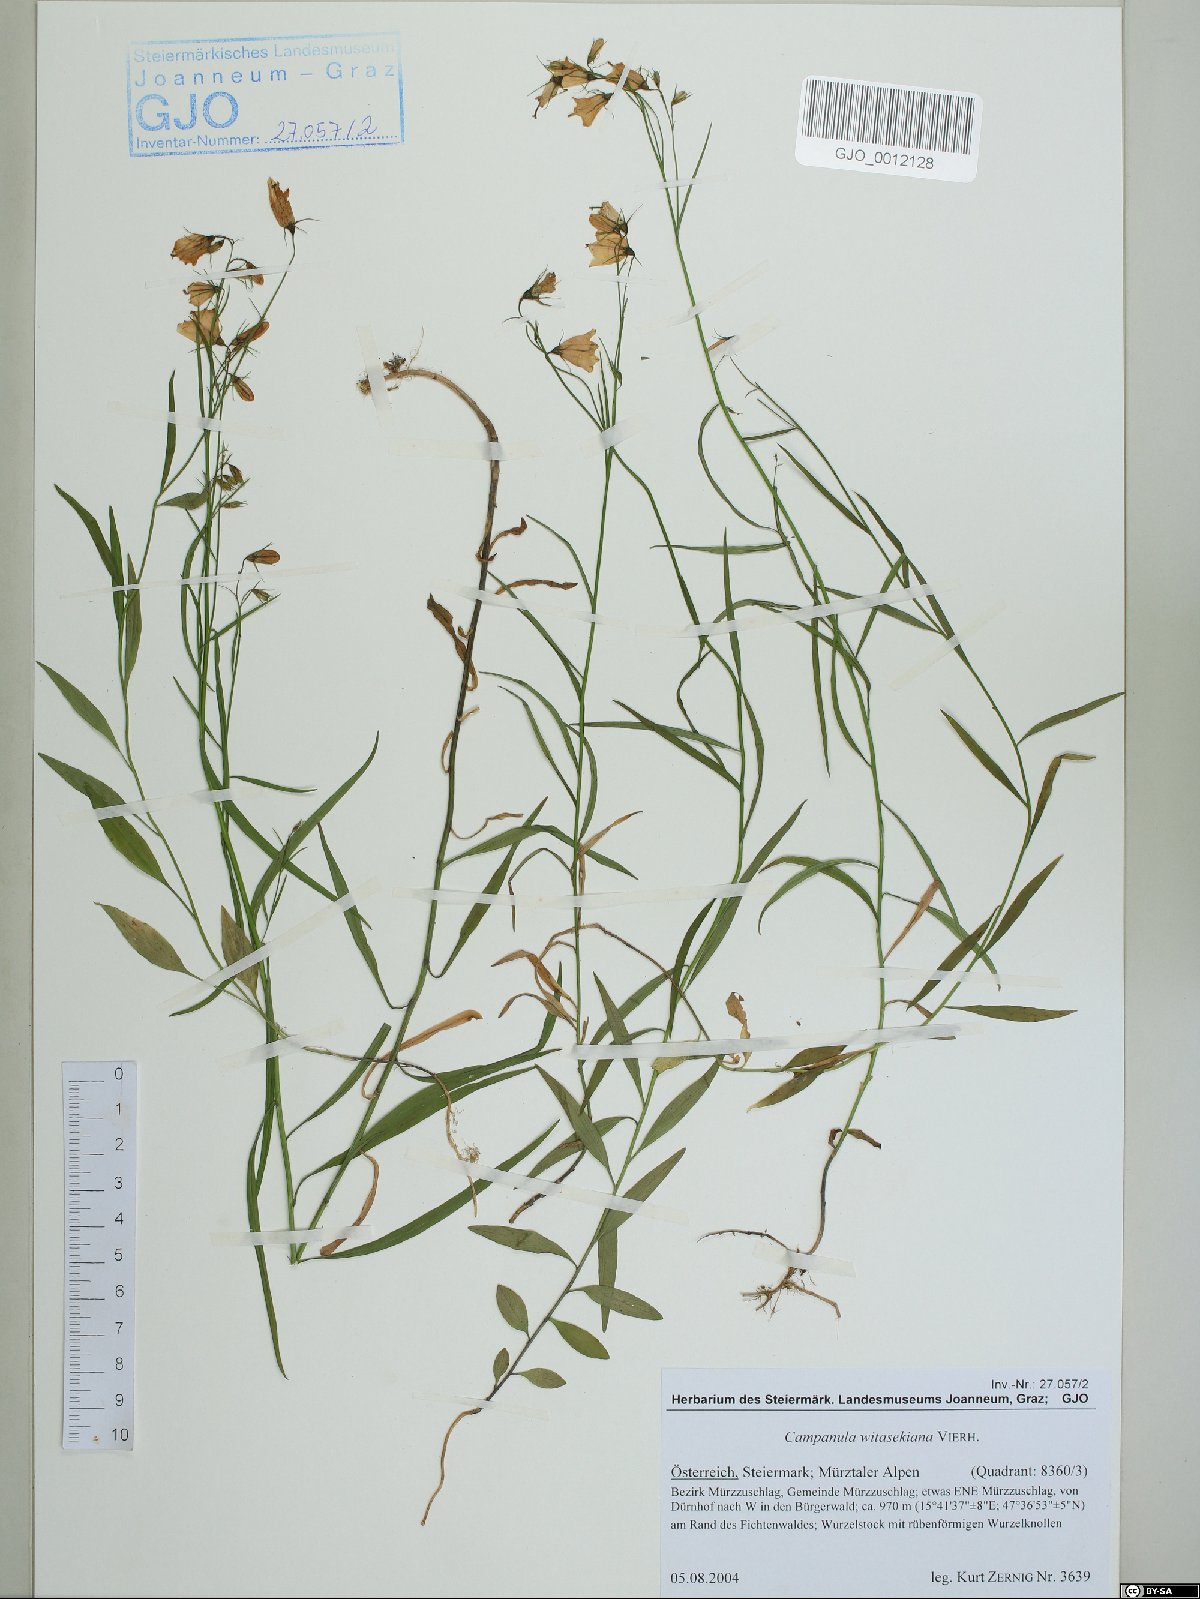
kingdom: Plantae
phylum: Tracheophyta
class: Magnoliopsida
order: Asterales
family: Campanulaceae
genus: Campanula
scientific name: Campanula witasekiana
